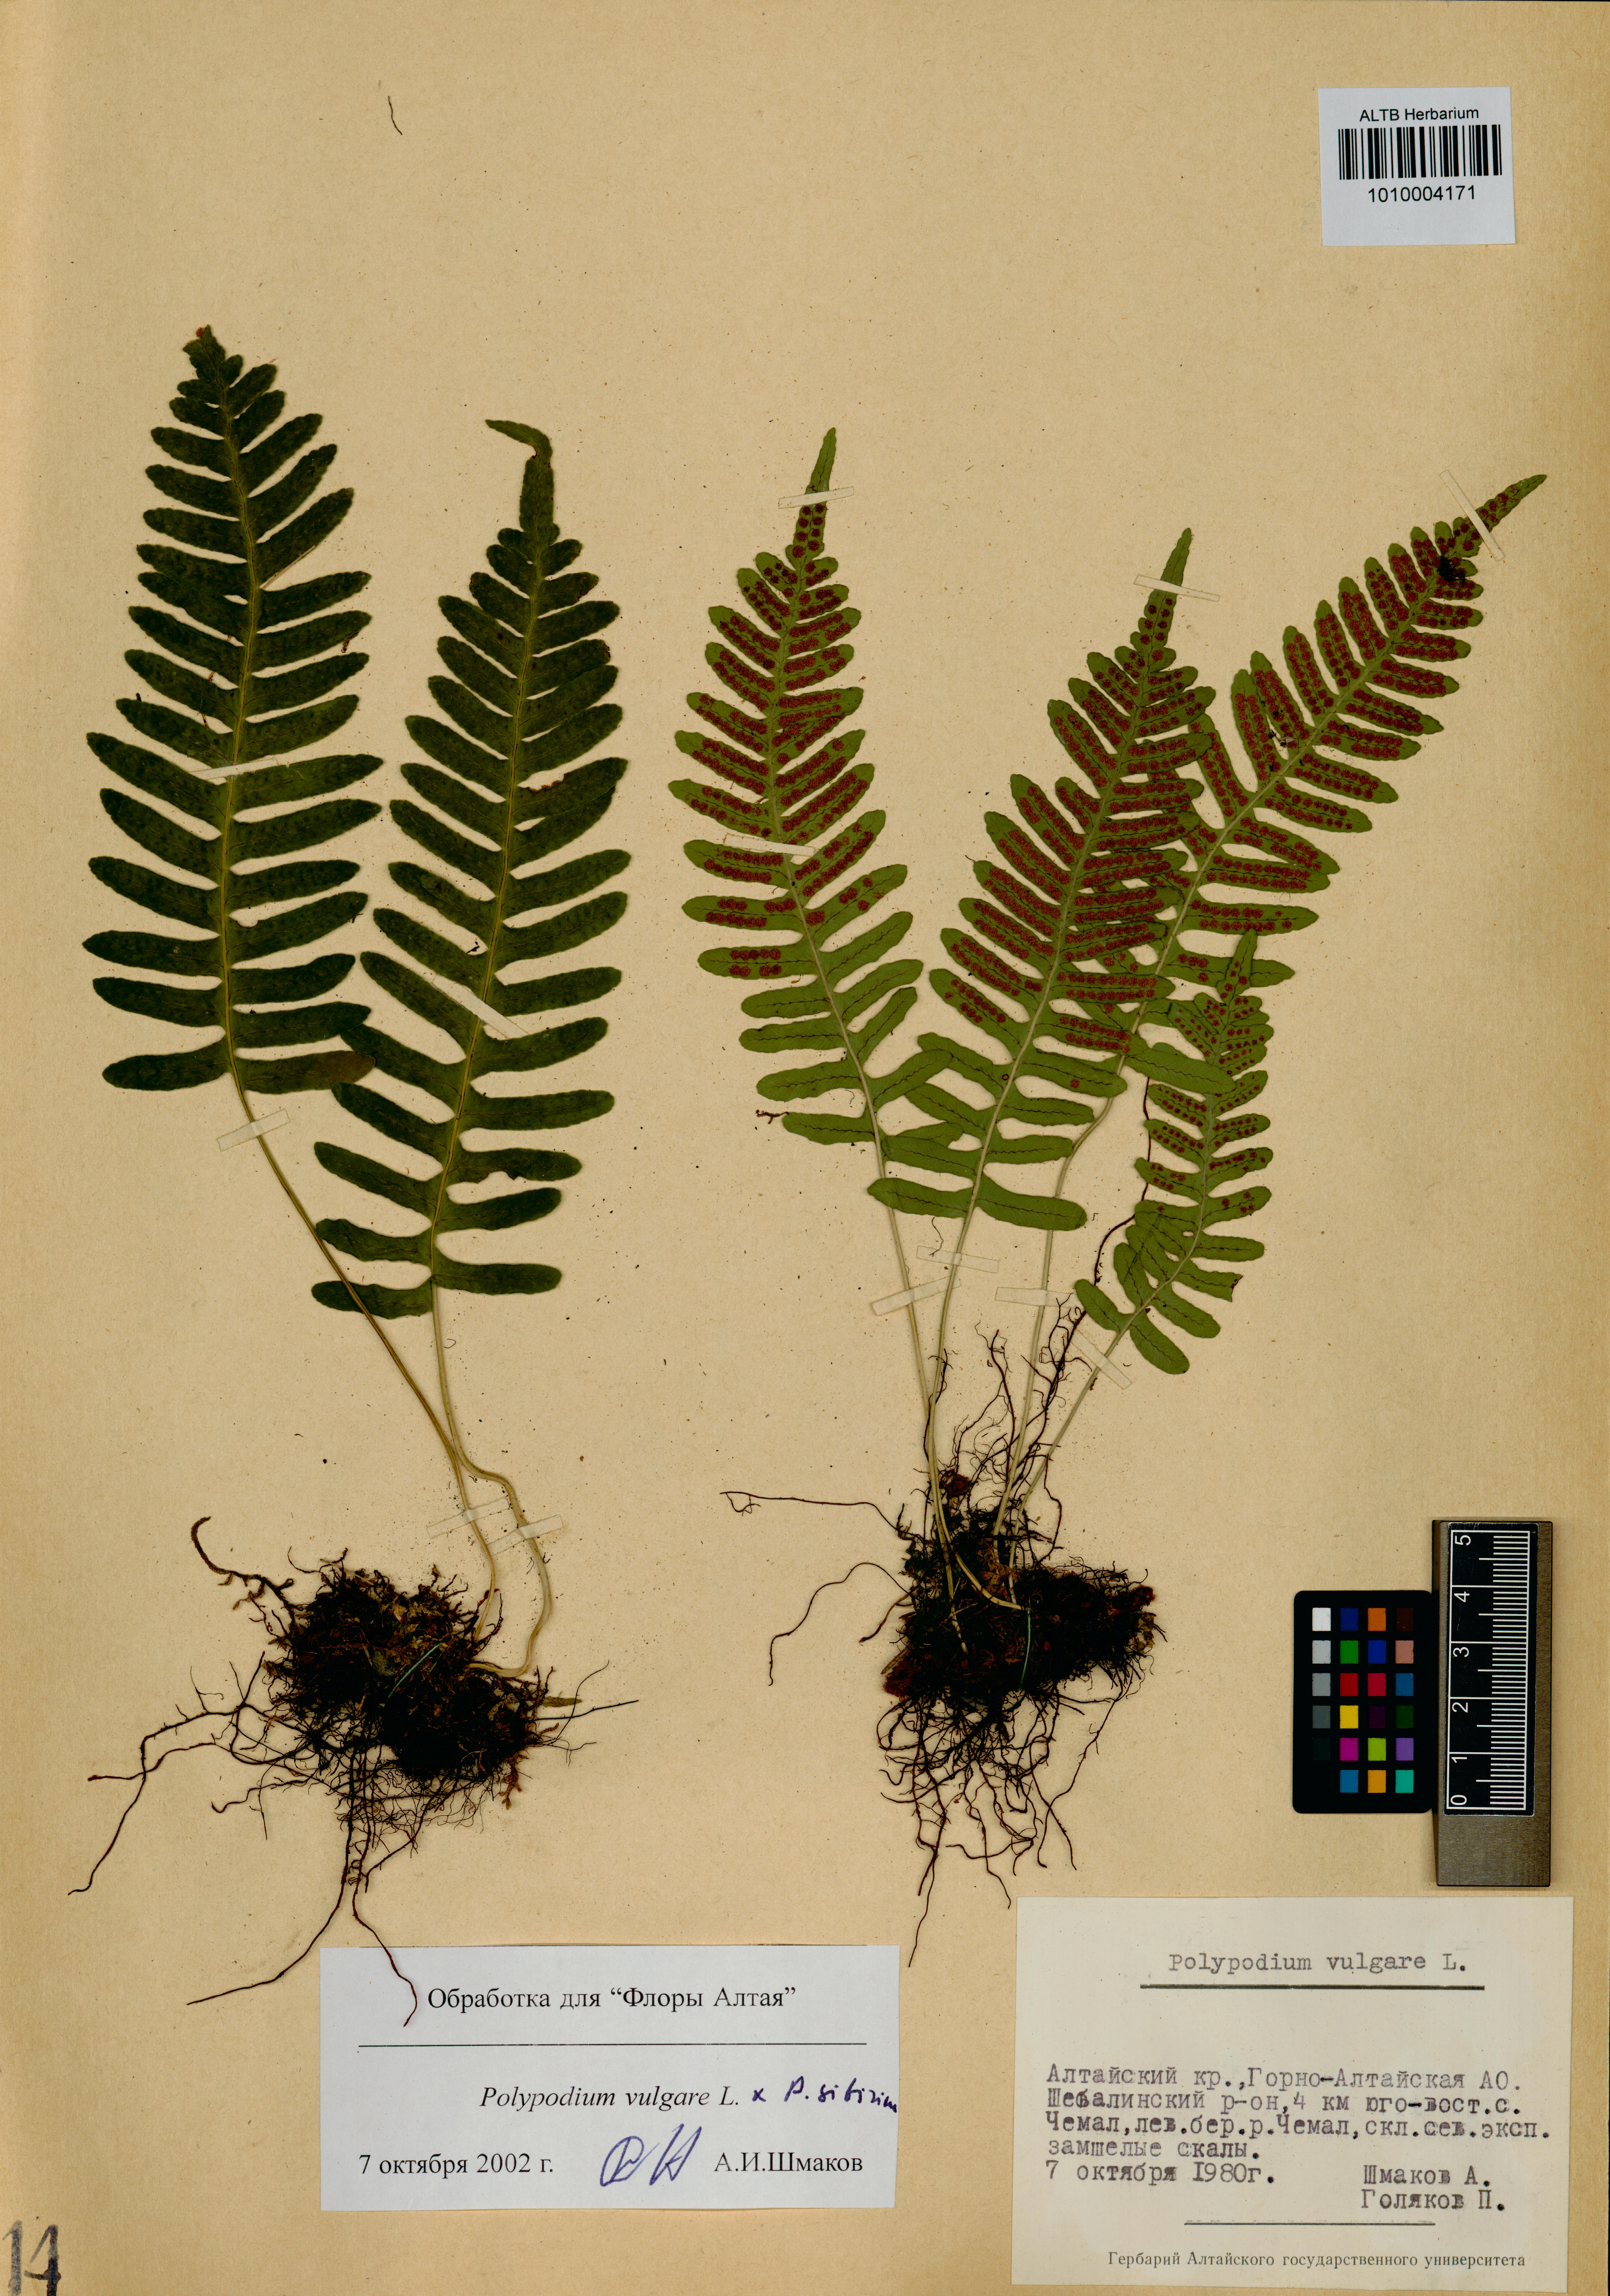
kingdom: Plantae
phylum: Tracheophyta
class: Polypodiopsida
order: Polypodiales
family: Polypodiaceae
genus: Polypodium
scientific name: Polypodium vulgare
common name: Common polypody
